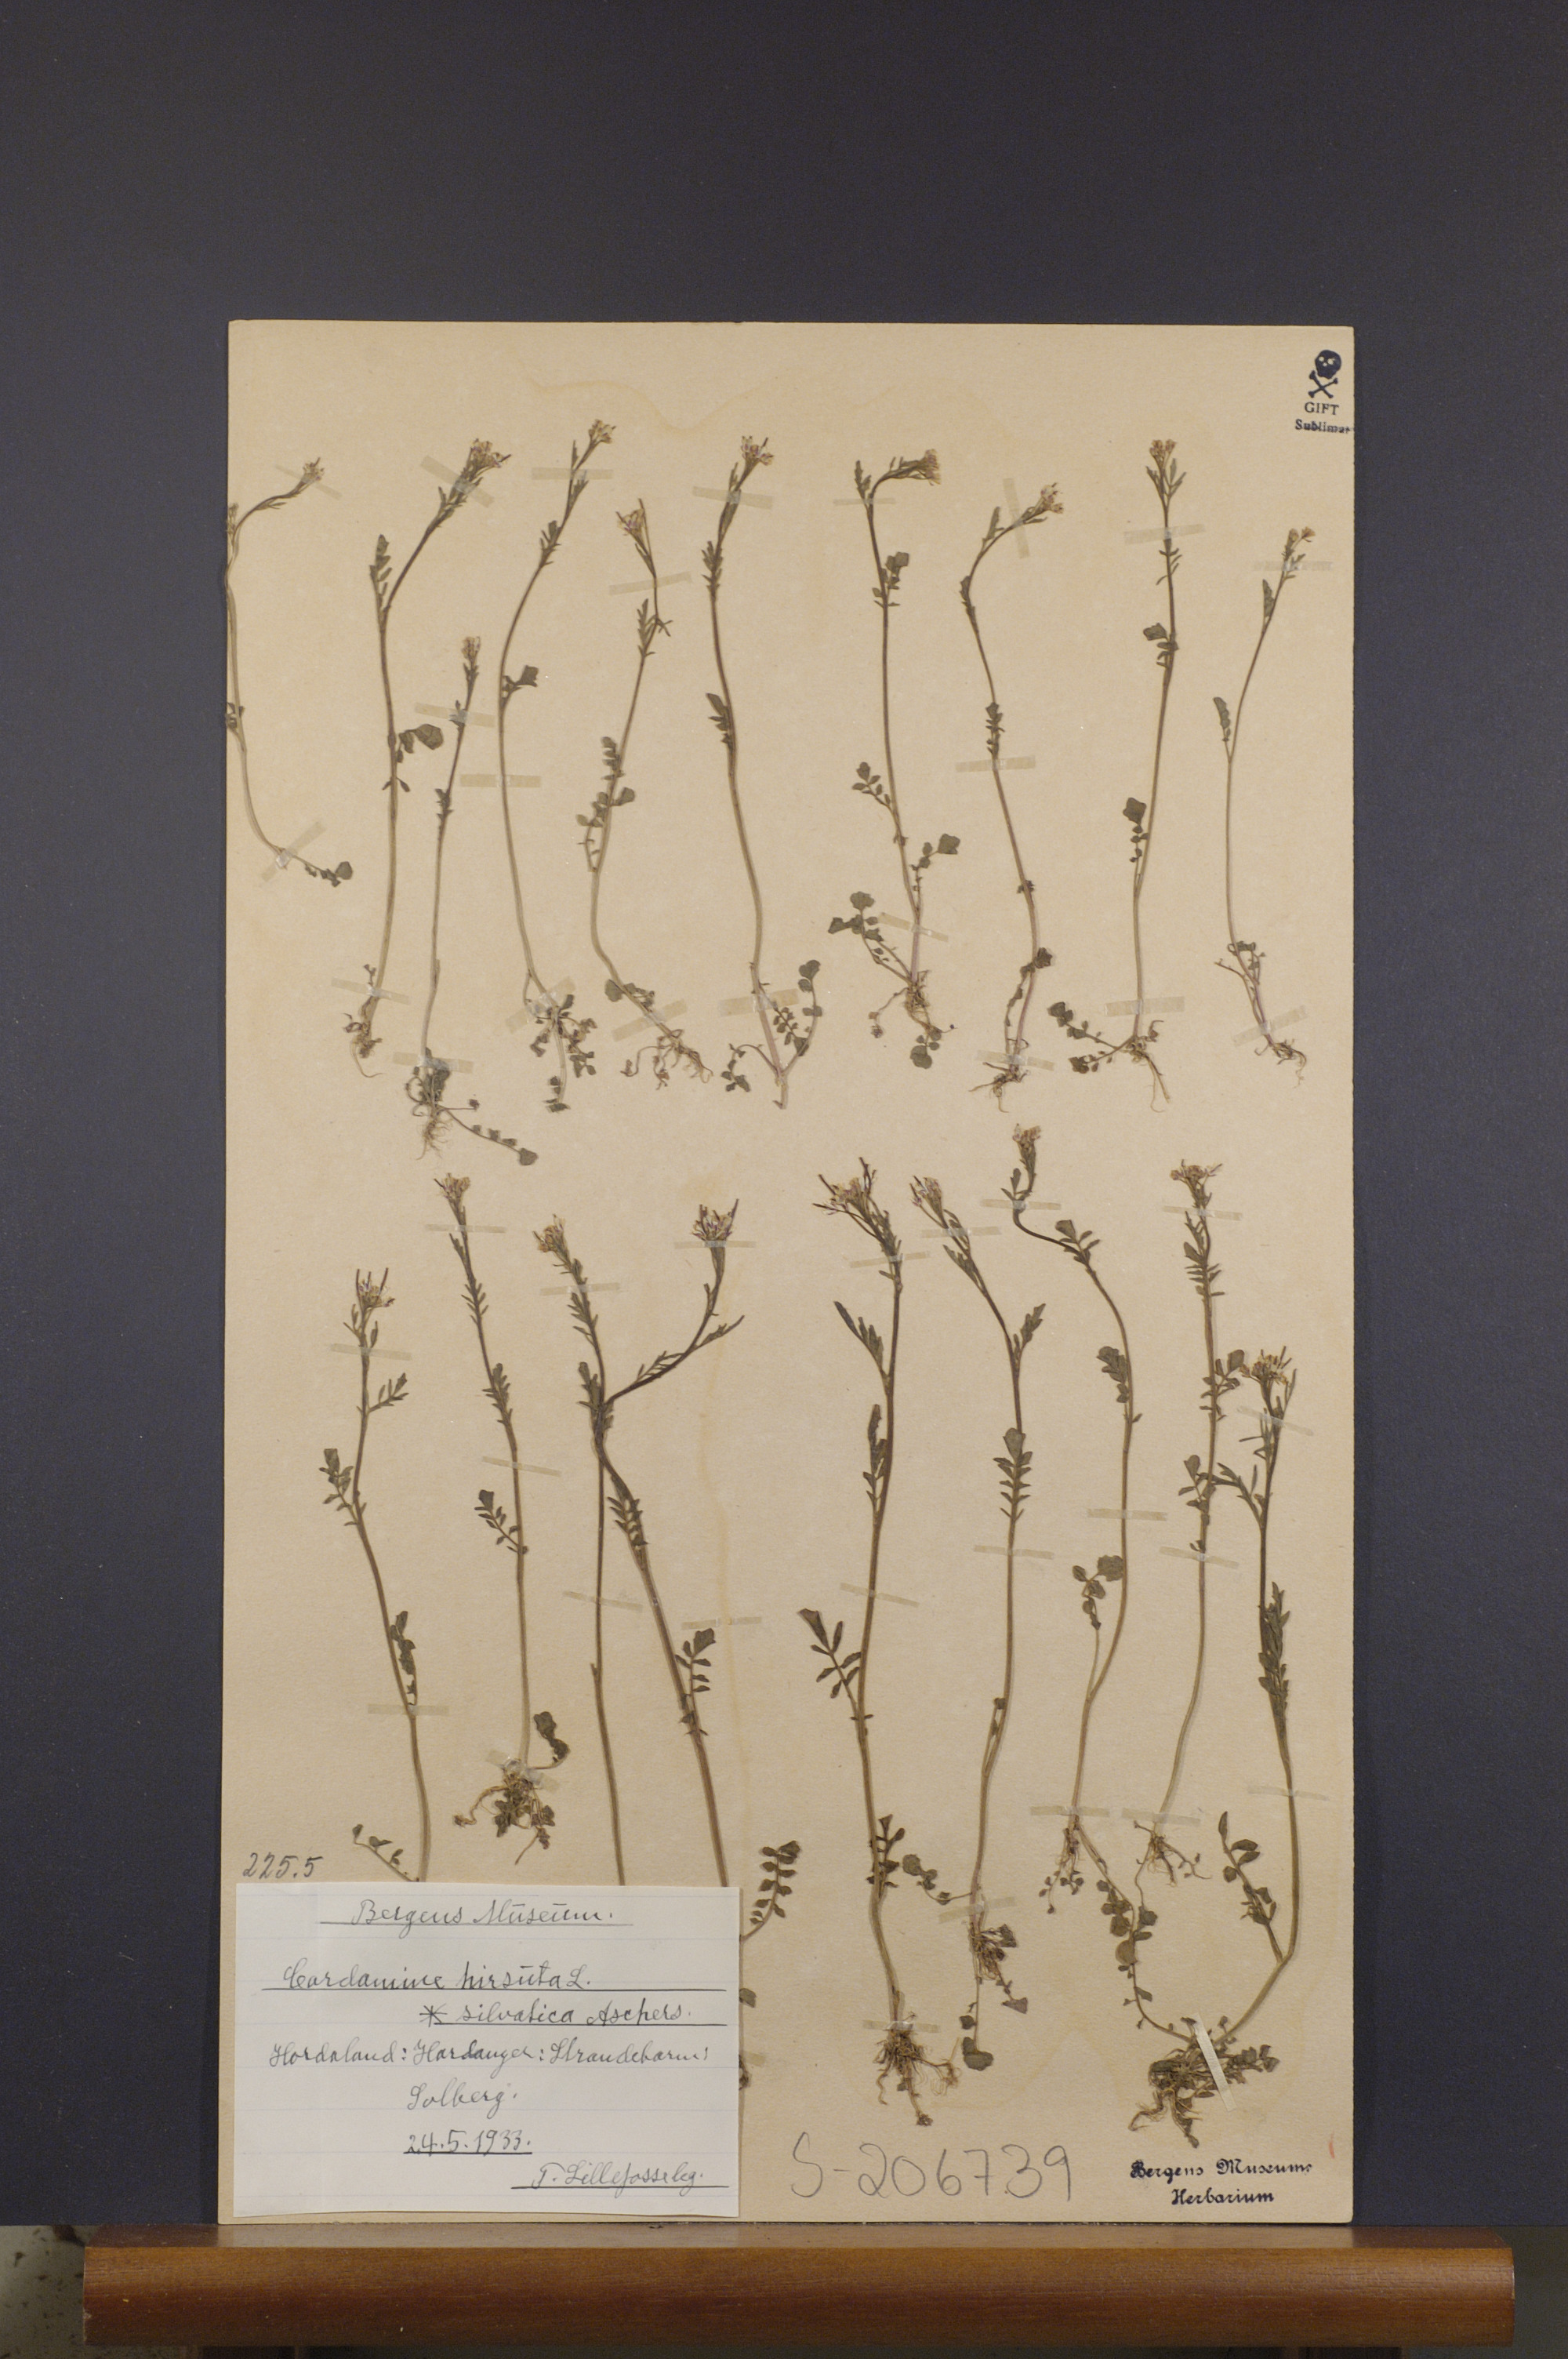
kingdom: Plantae
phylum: Tracheophyta
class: Magnoliopsida
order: Brassicales
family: Brassicaceae
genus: Cardamine
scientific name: Cardamine flexuosa
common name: Woodland bittercress
